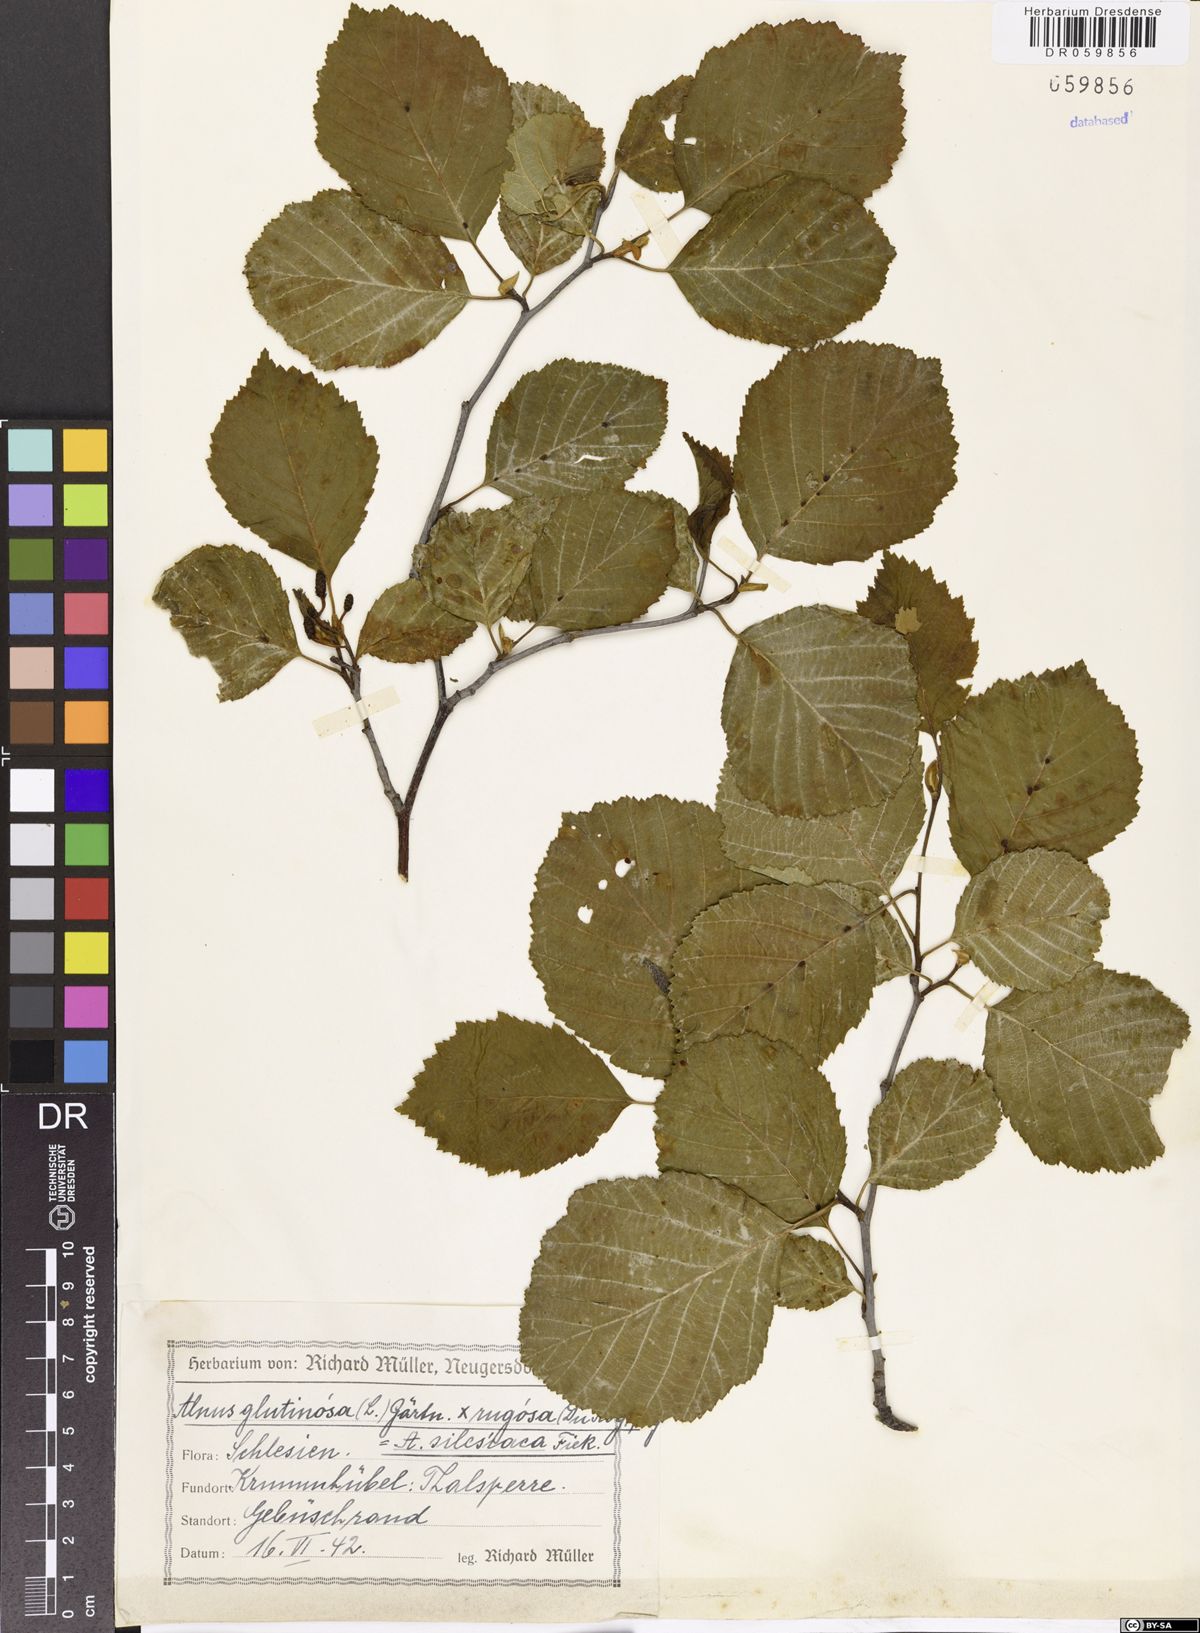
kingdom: Plantae
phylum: Tracheophyta
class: Magnoliopsida
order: Fagales
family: Betulaceae
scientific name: Betulaceae
